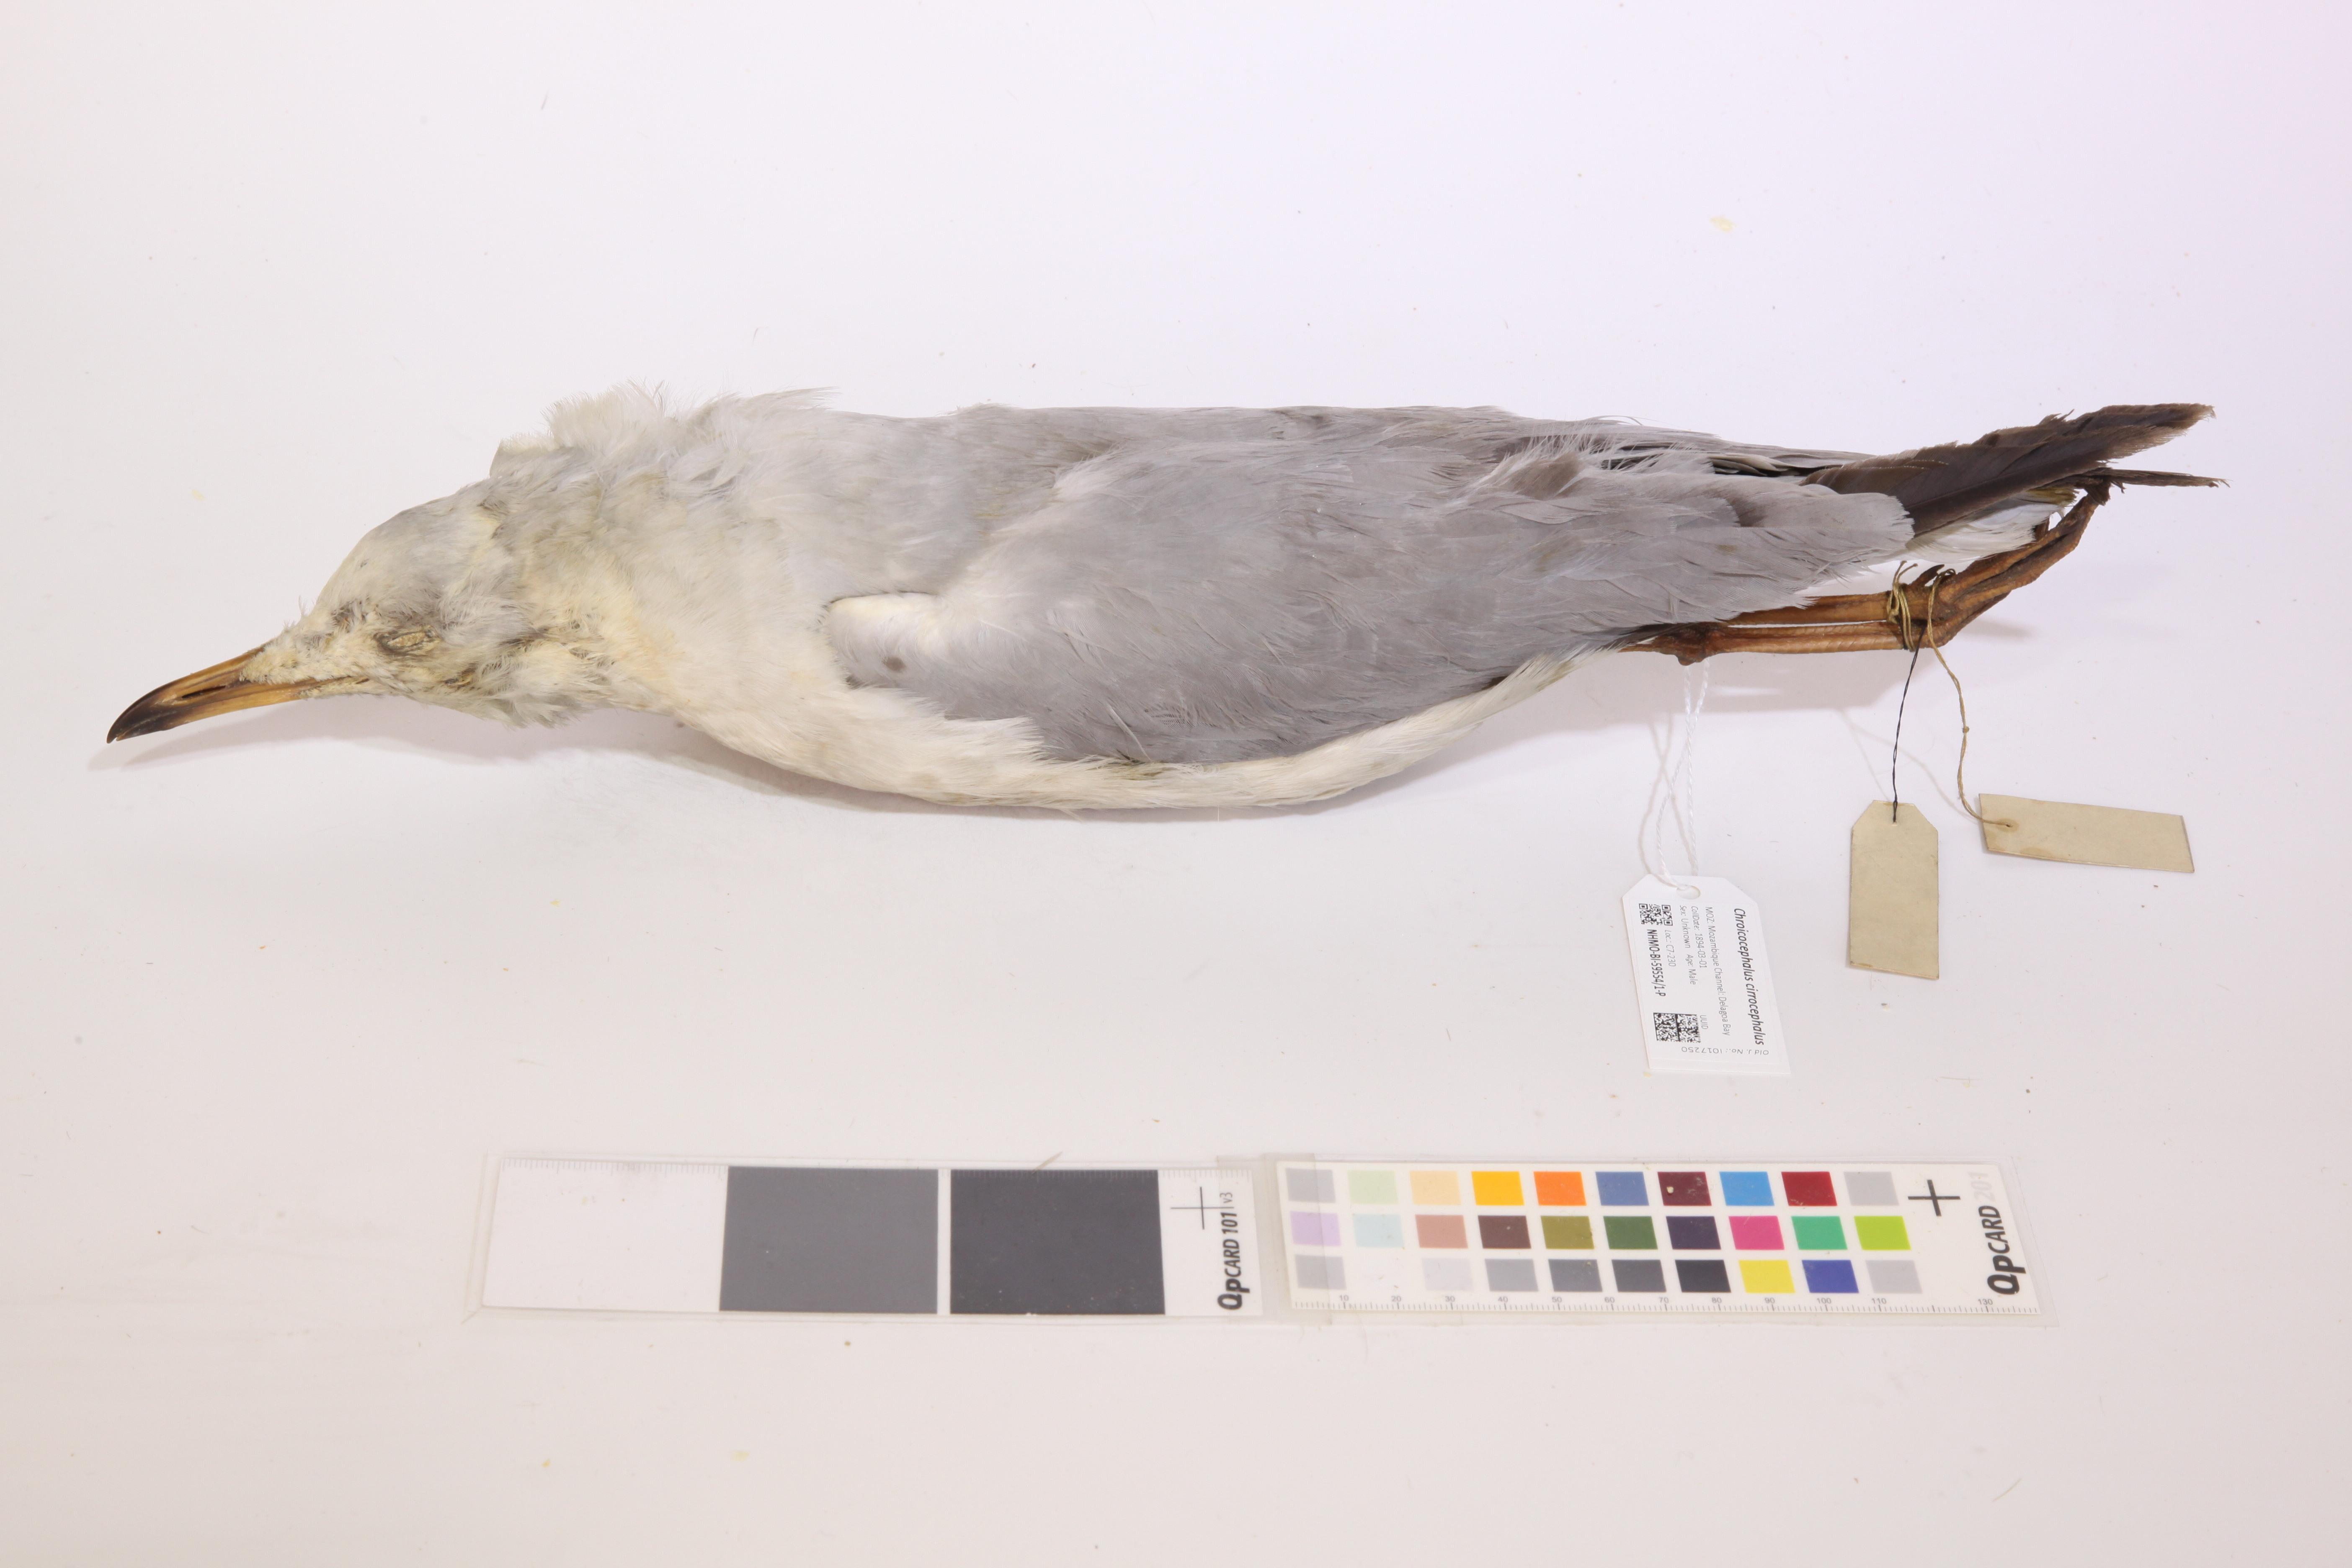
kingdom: Animalia
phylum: Chordata
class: Aves
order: Charadriiformes
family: Laridae
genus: Chroicocephalus
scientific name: Chroicocephalus cirrocephalus
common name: Grey-headed gull
